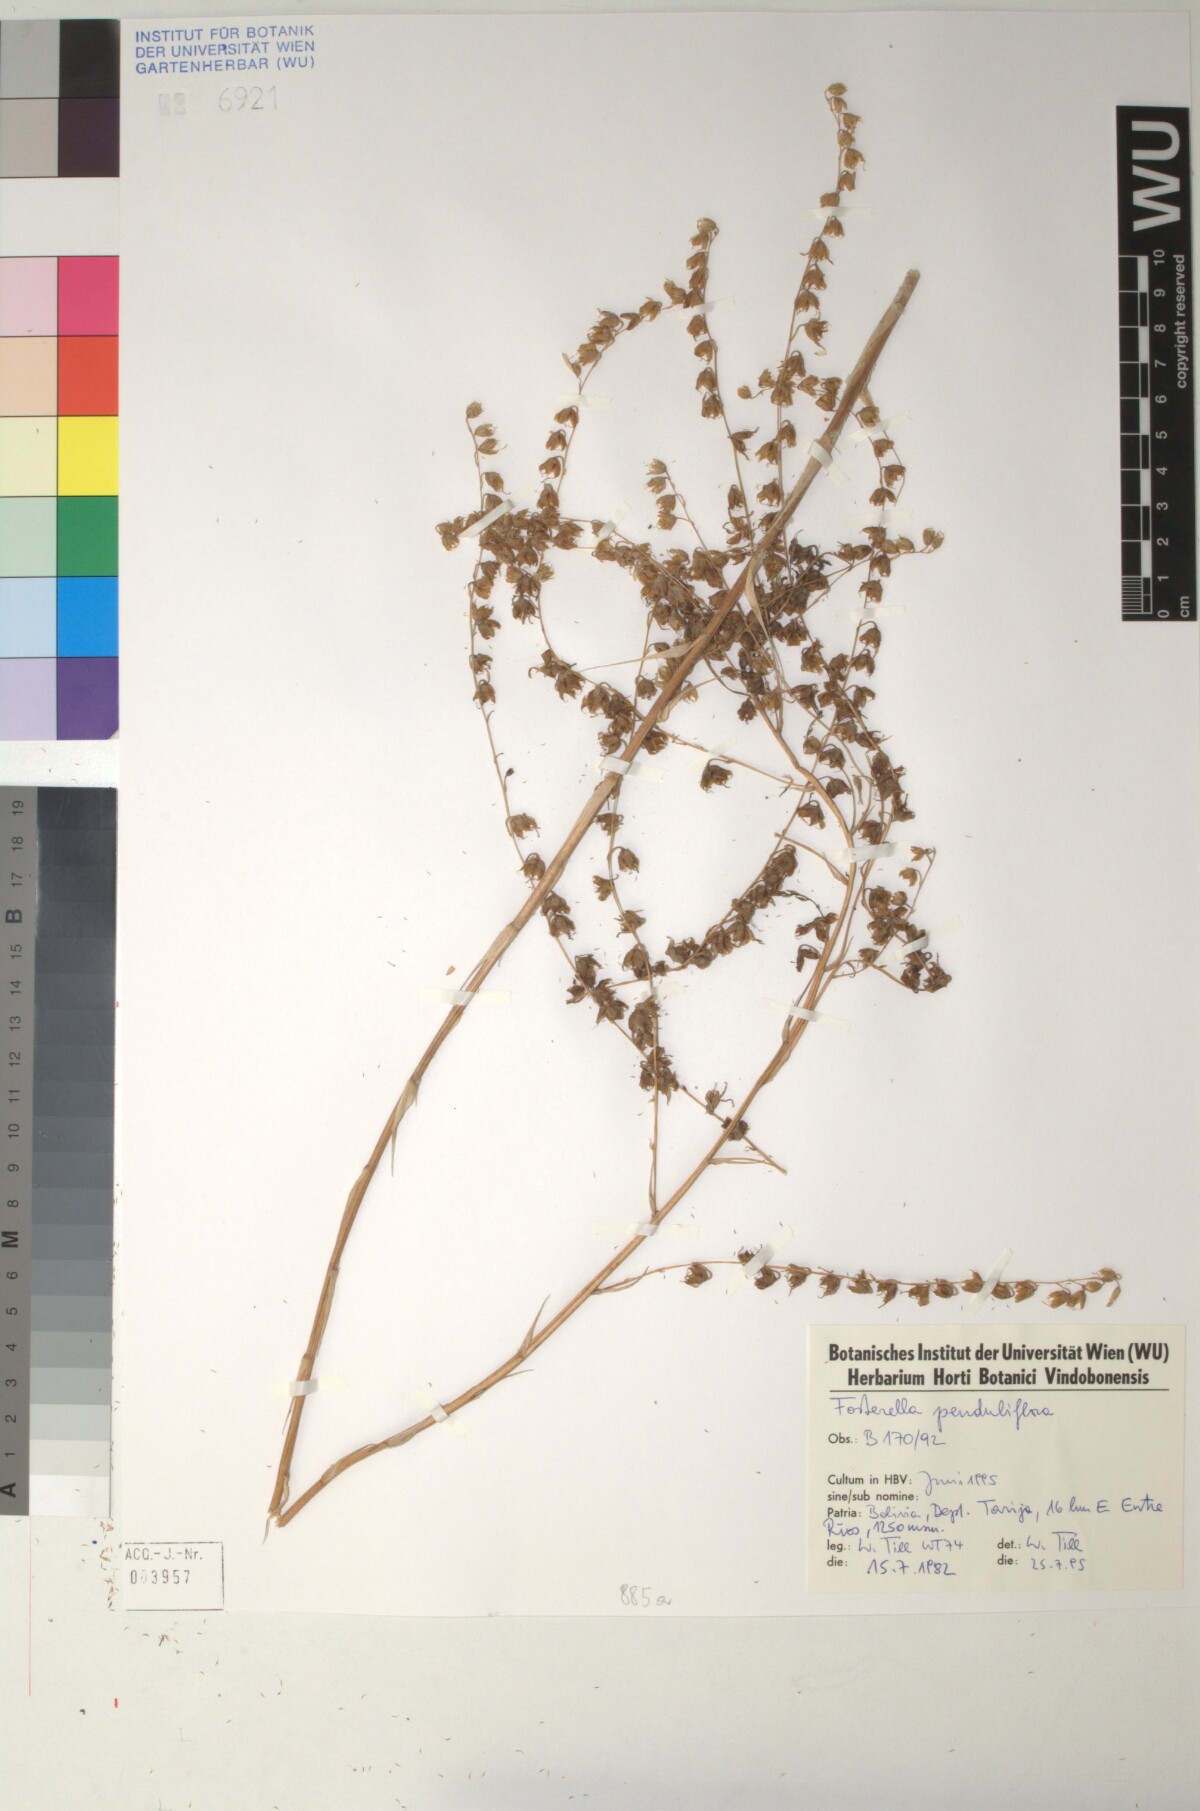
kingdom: Plantae
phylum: Tracheophyta
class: Liliopsida
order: Poales
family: Bromeliaceae
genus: Fosterella
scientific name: Fosterella penduliflora
